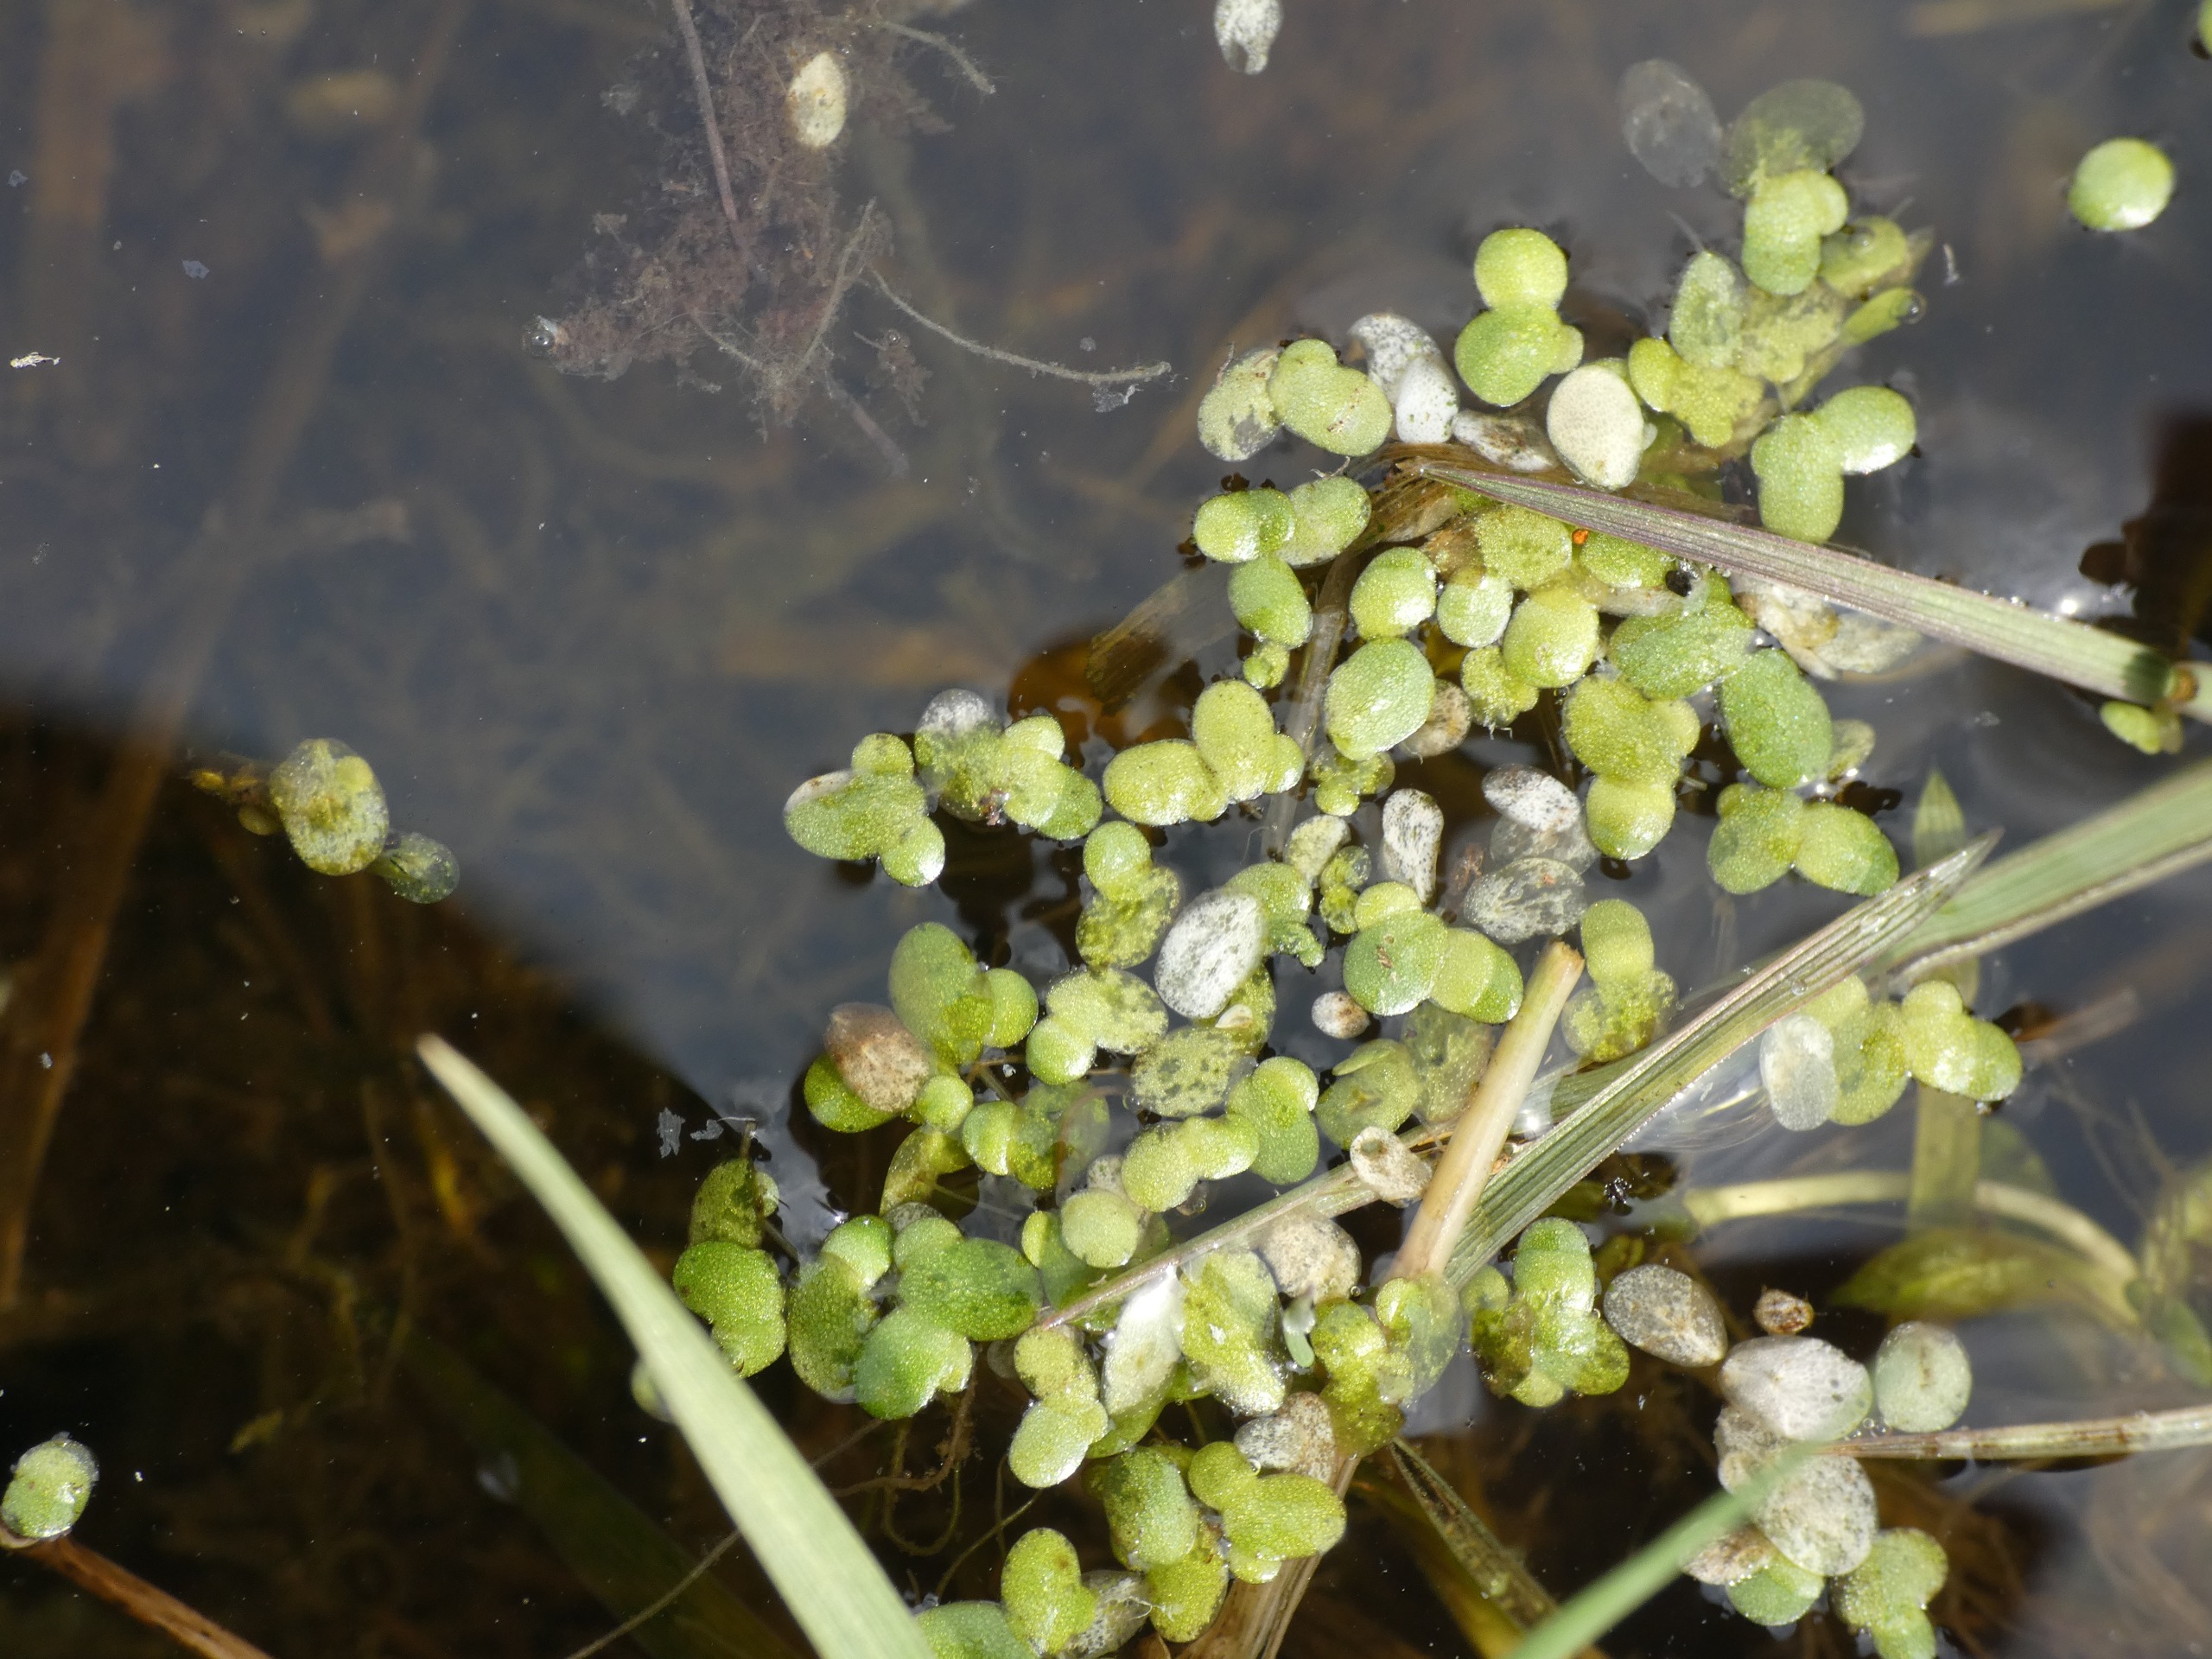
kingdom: Plantae
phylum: Tracheophyta
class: Liliopsida
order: Alismatales
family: Araceae
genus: Lemna
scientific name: Lemna minor
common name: Liden andemad
